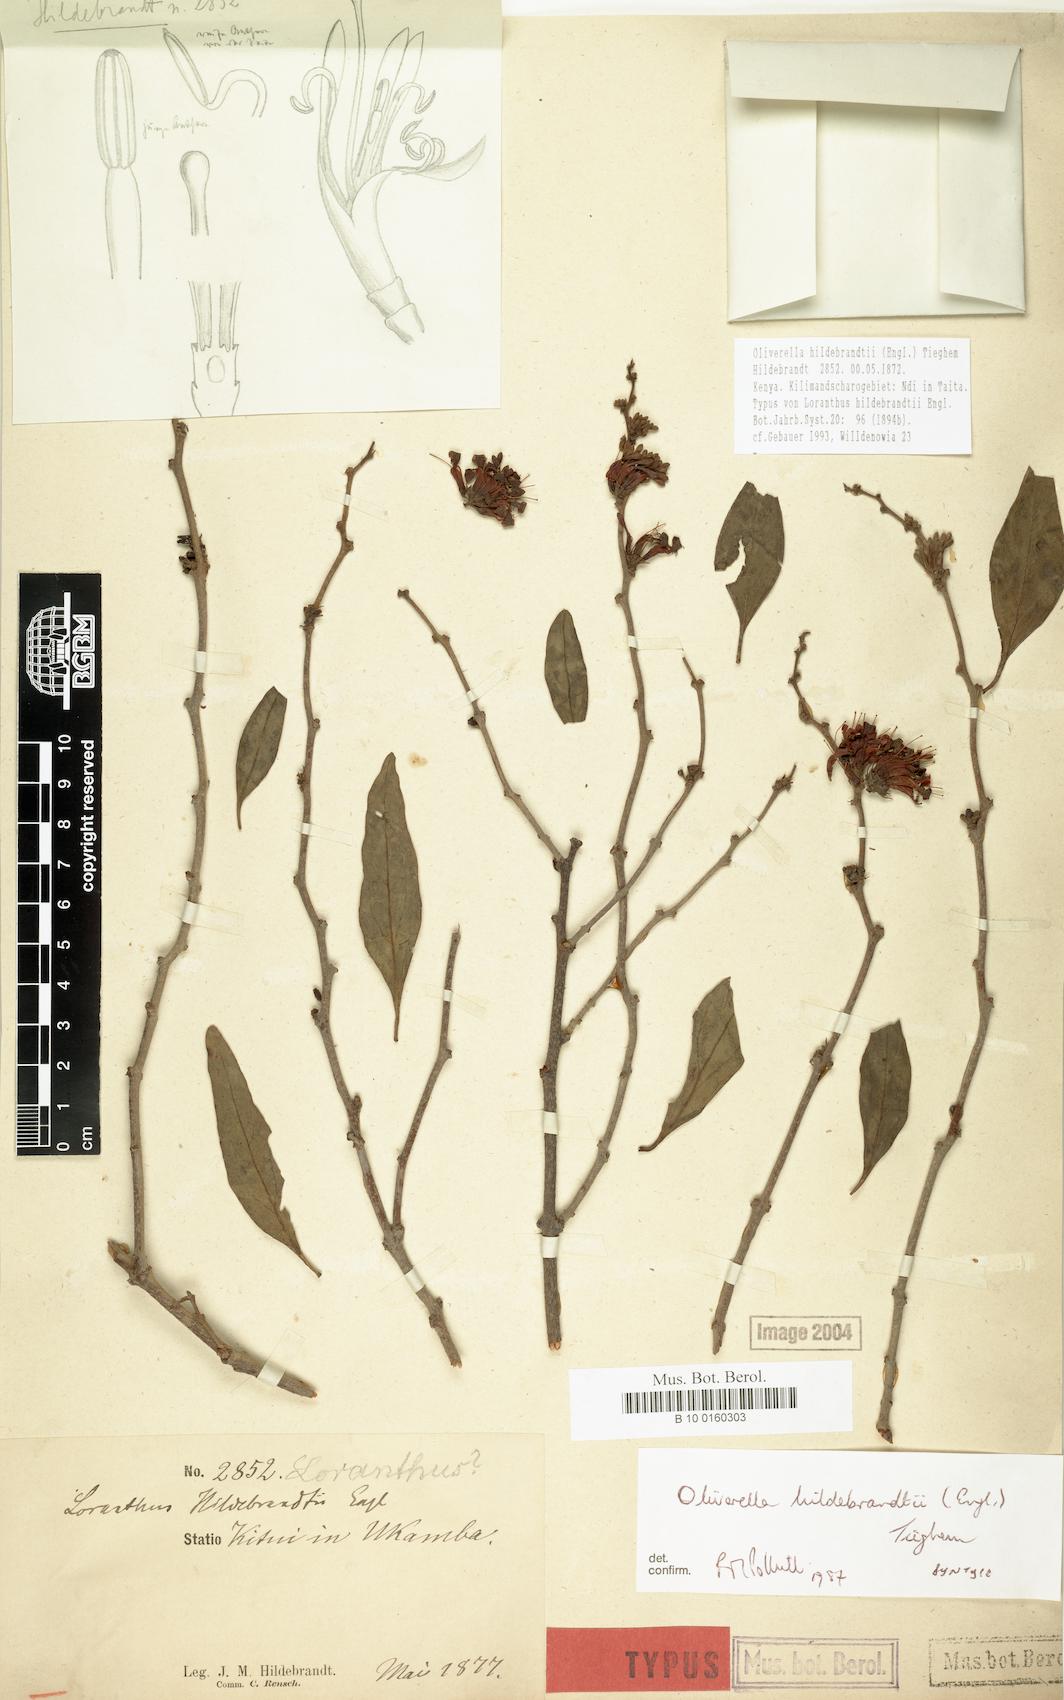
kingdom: Plantae
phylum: Tracheophyta
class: Magnoliopsida
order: Santalales
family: Loranthaceae
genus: Oliverella
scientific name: Oliverella hildebrandtii
